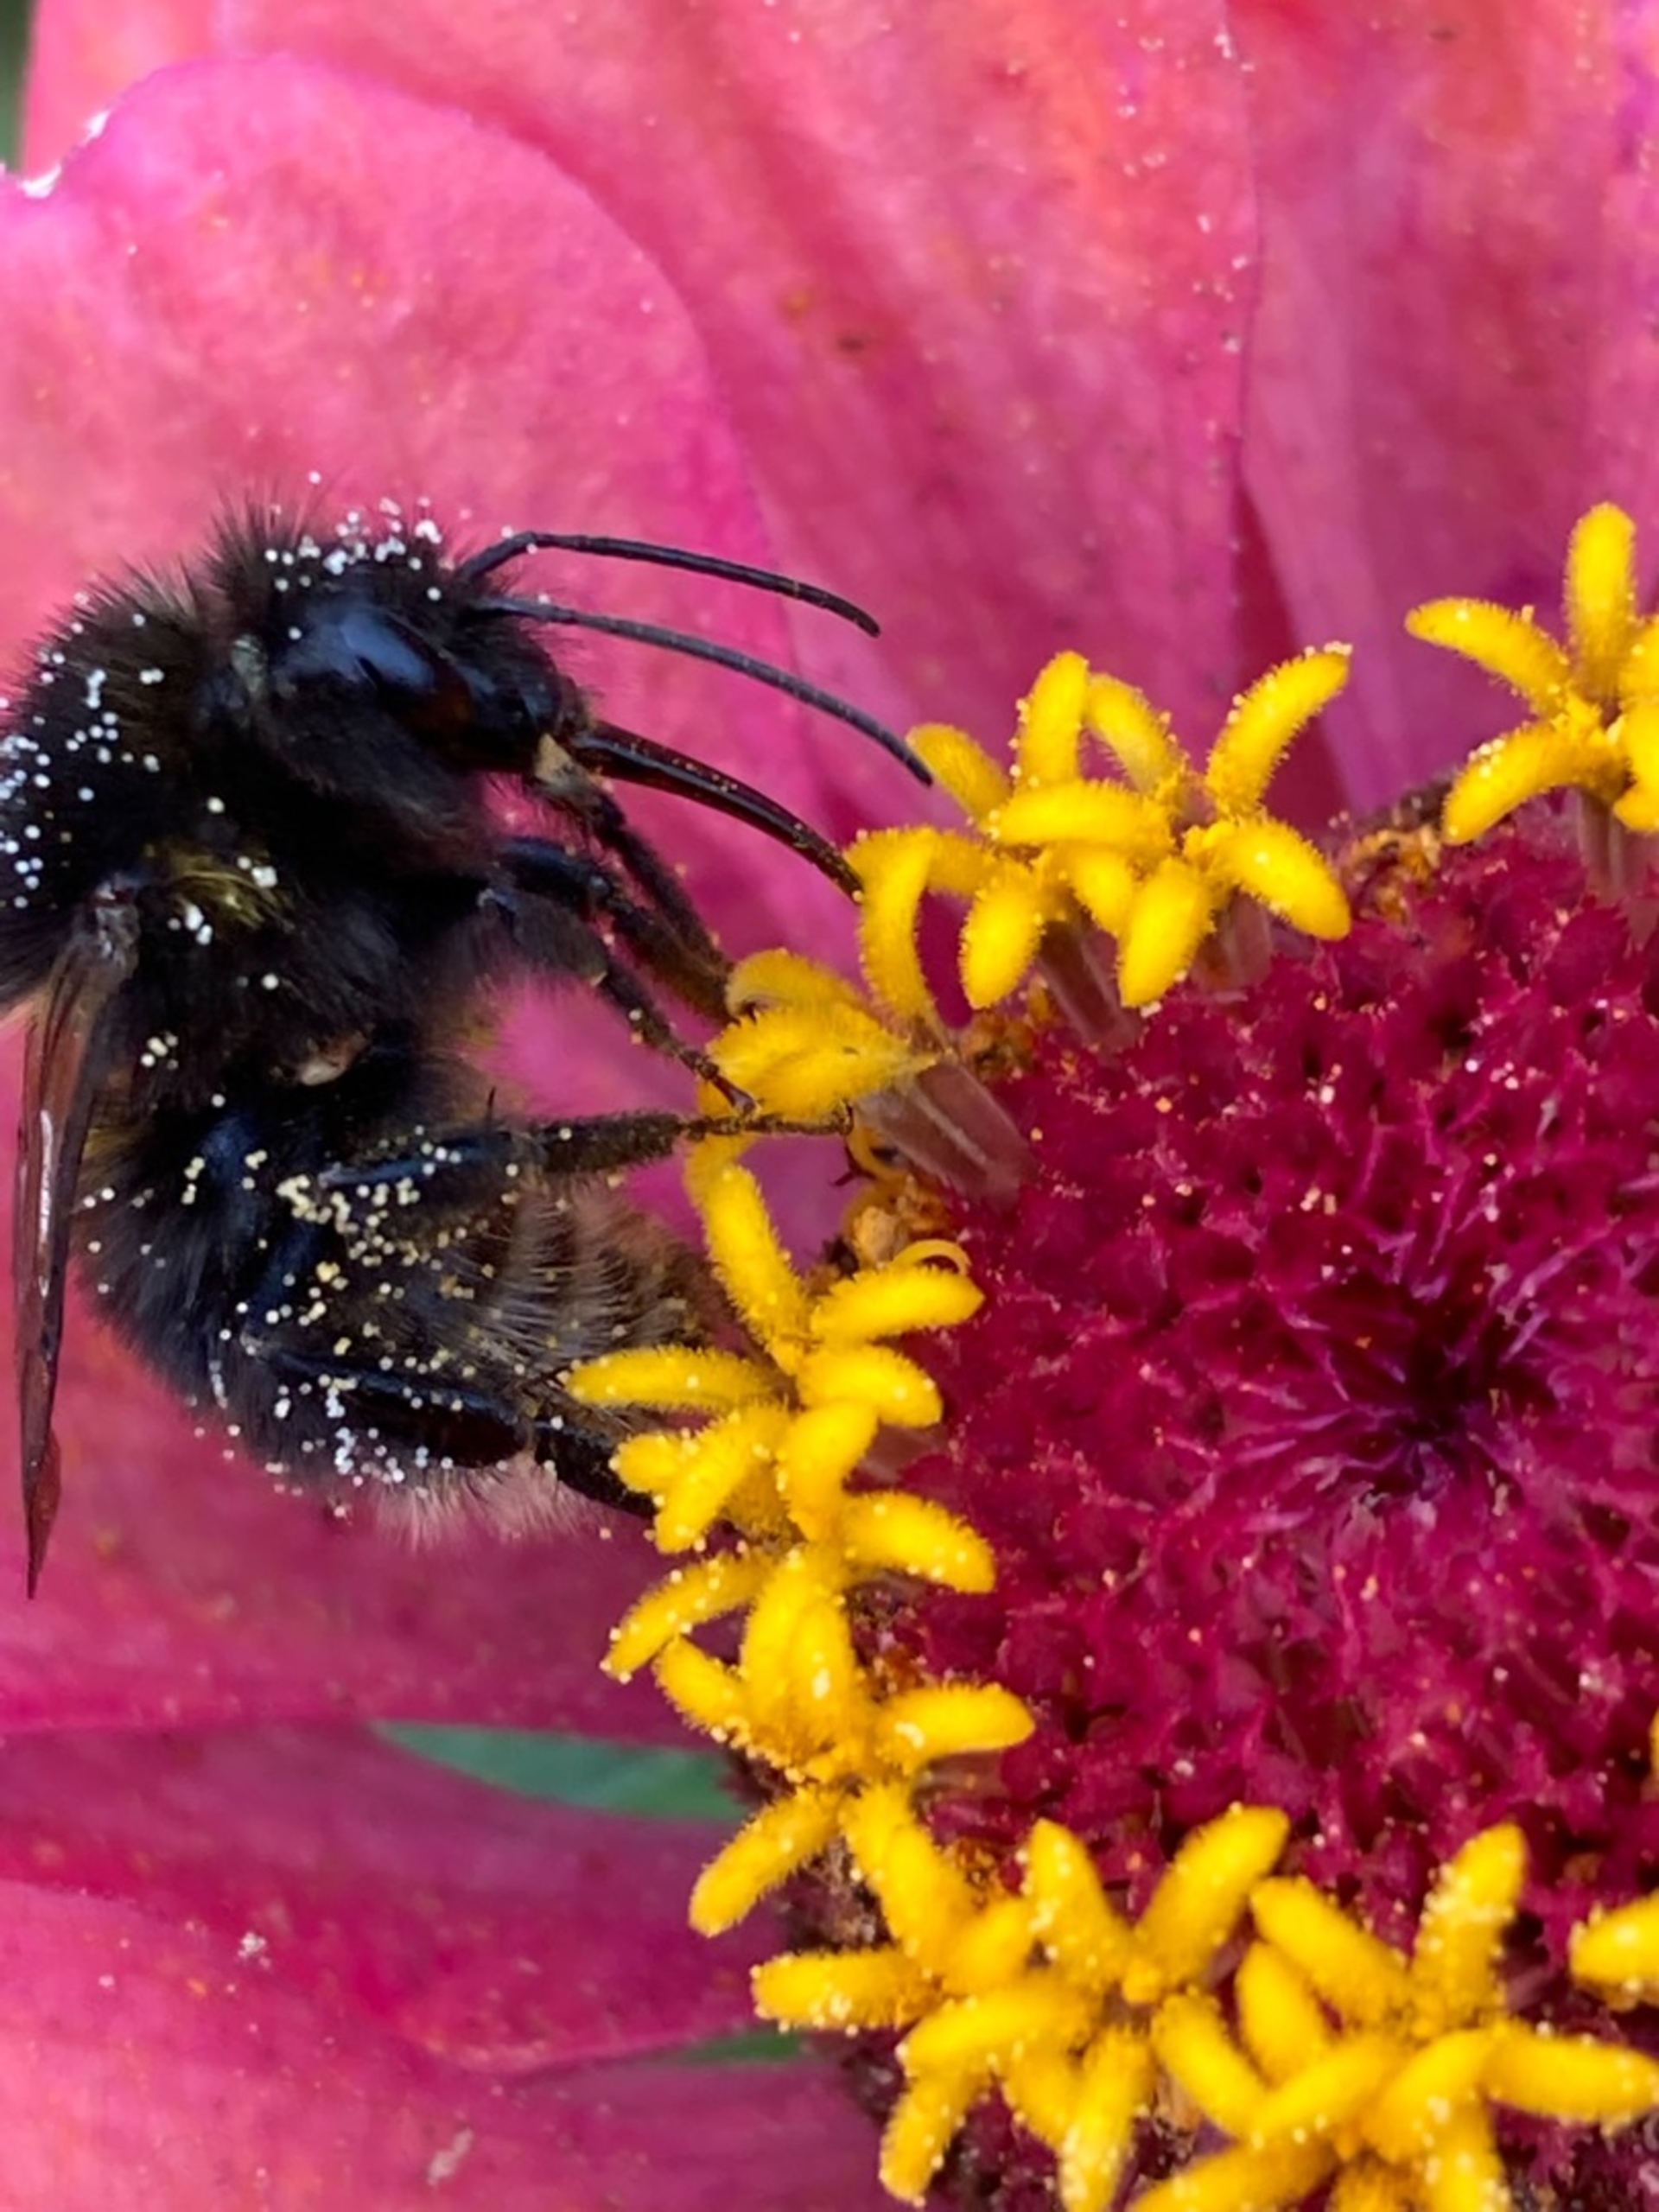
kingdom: Animalia
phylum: Arthropoda
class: Insecta
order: Hymenoptera
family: Apidae
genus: Bombus
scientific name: Bombus
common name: Humlebier
